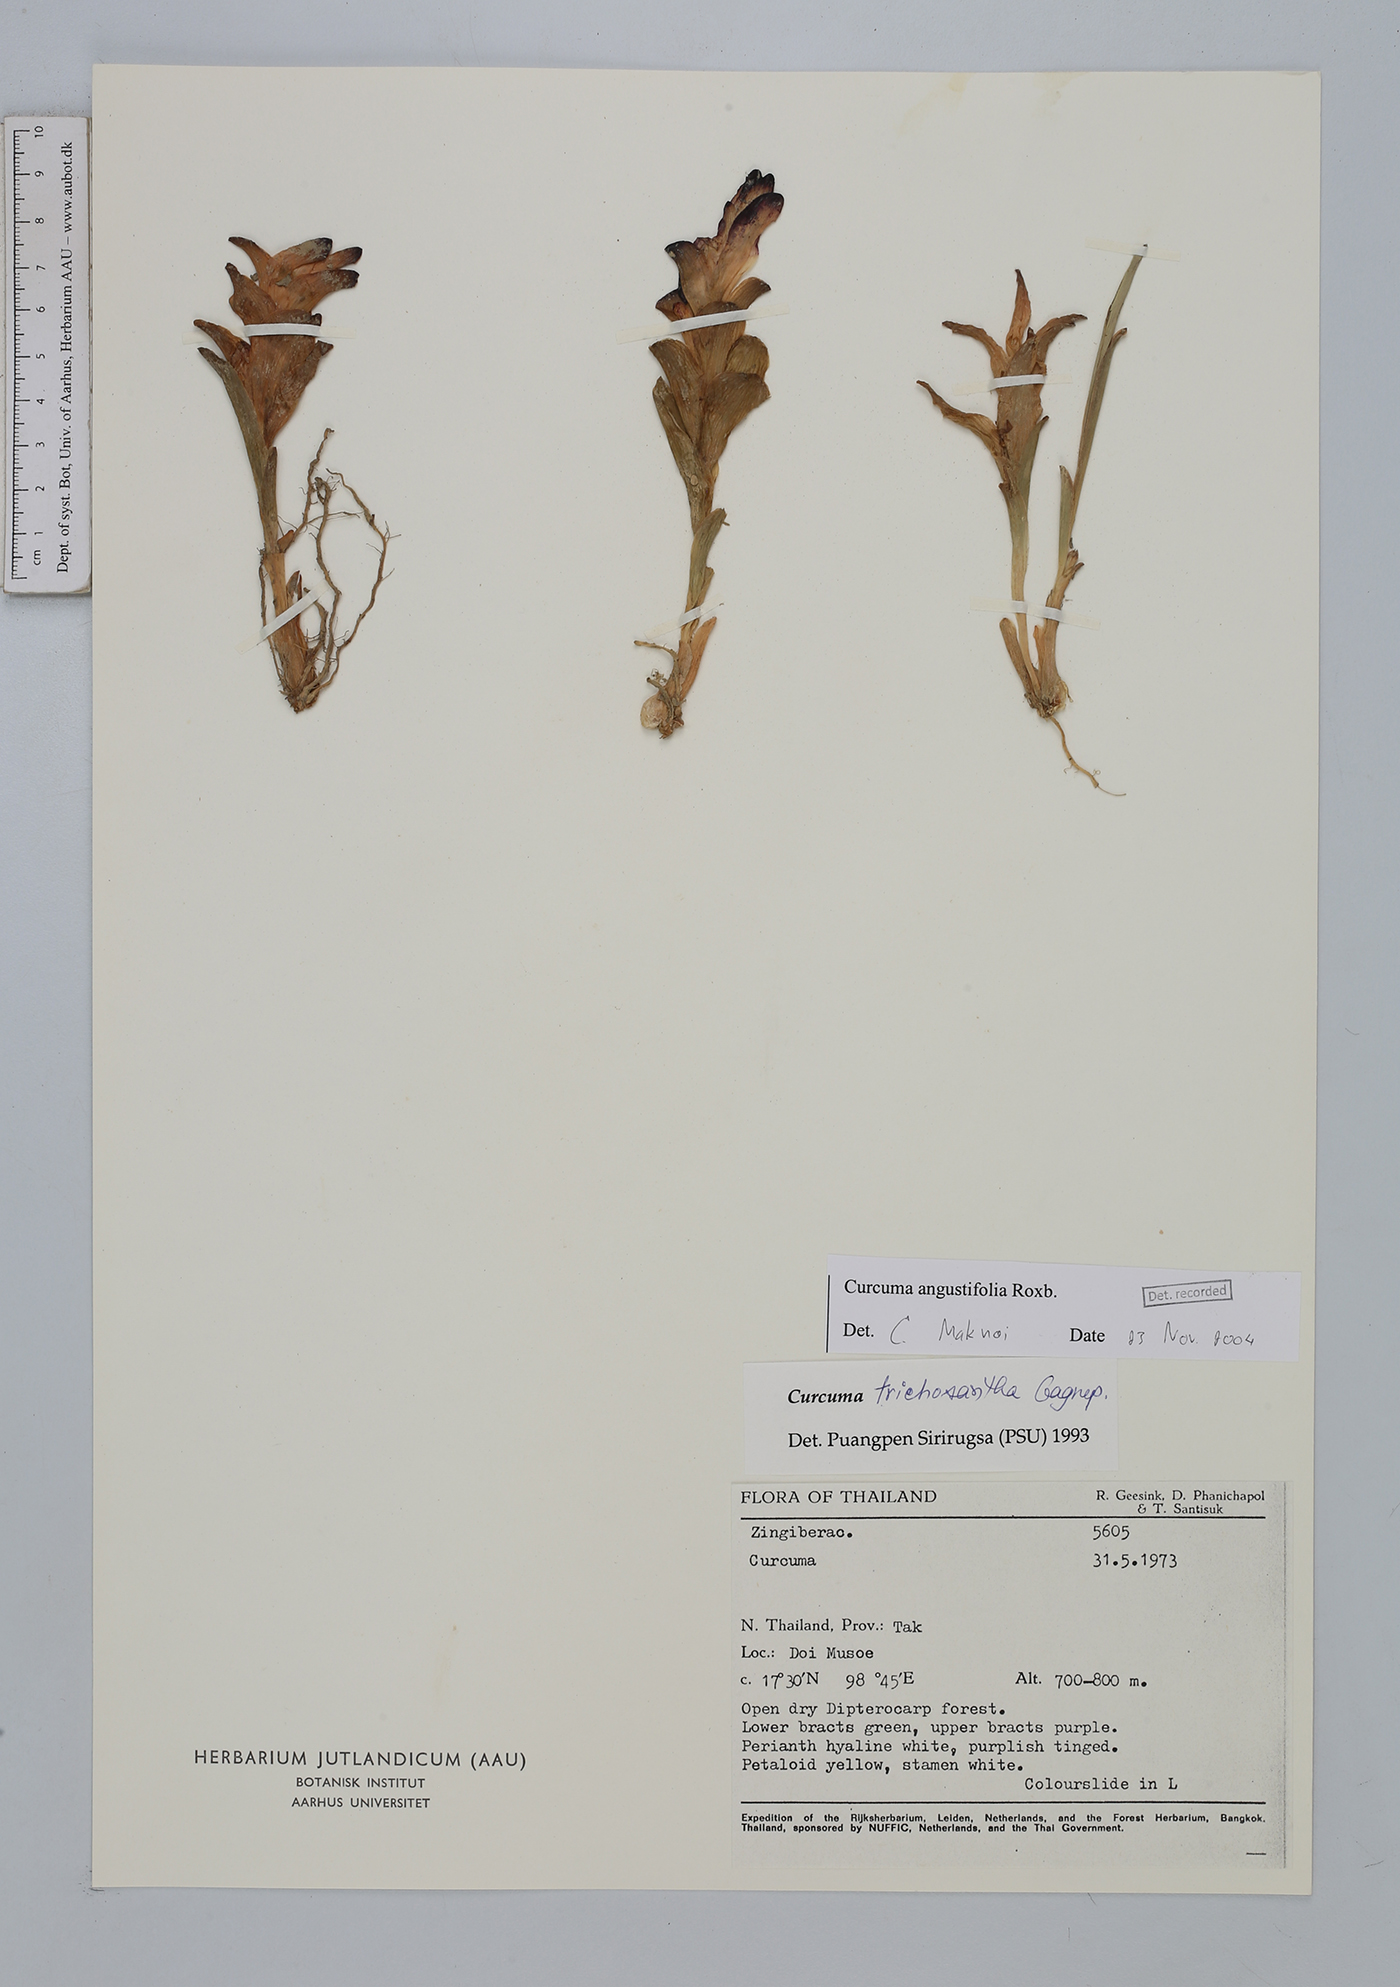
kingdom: Plantae
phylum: Tracheophyta
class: Liliopsida
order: Zingiberales
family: Zingiberaceae
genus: Curcuma
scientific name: Curcuma angustifolia
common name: East indian arrowroot
